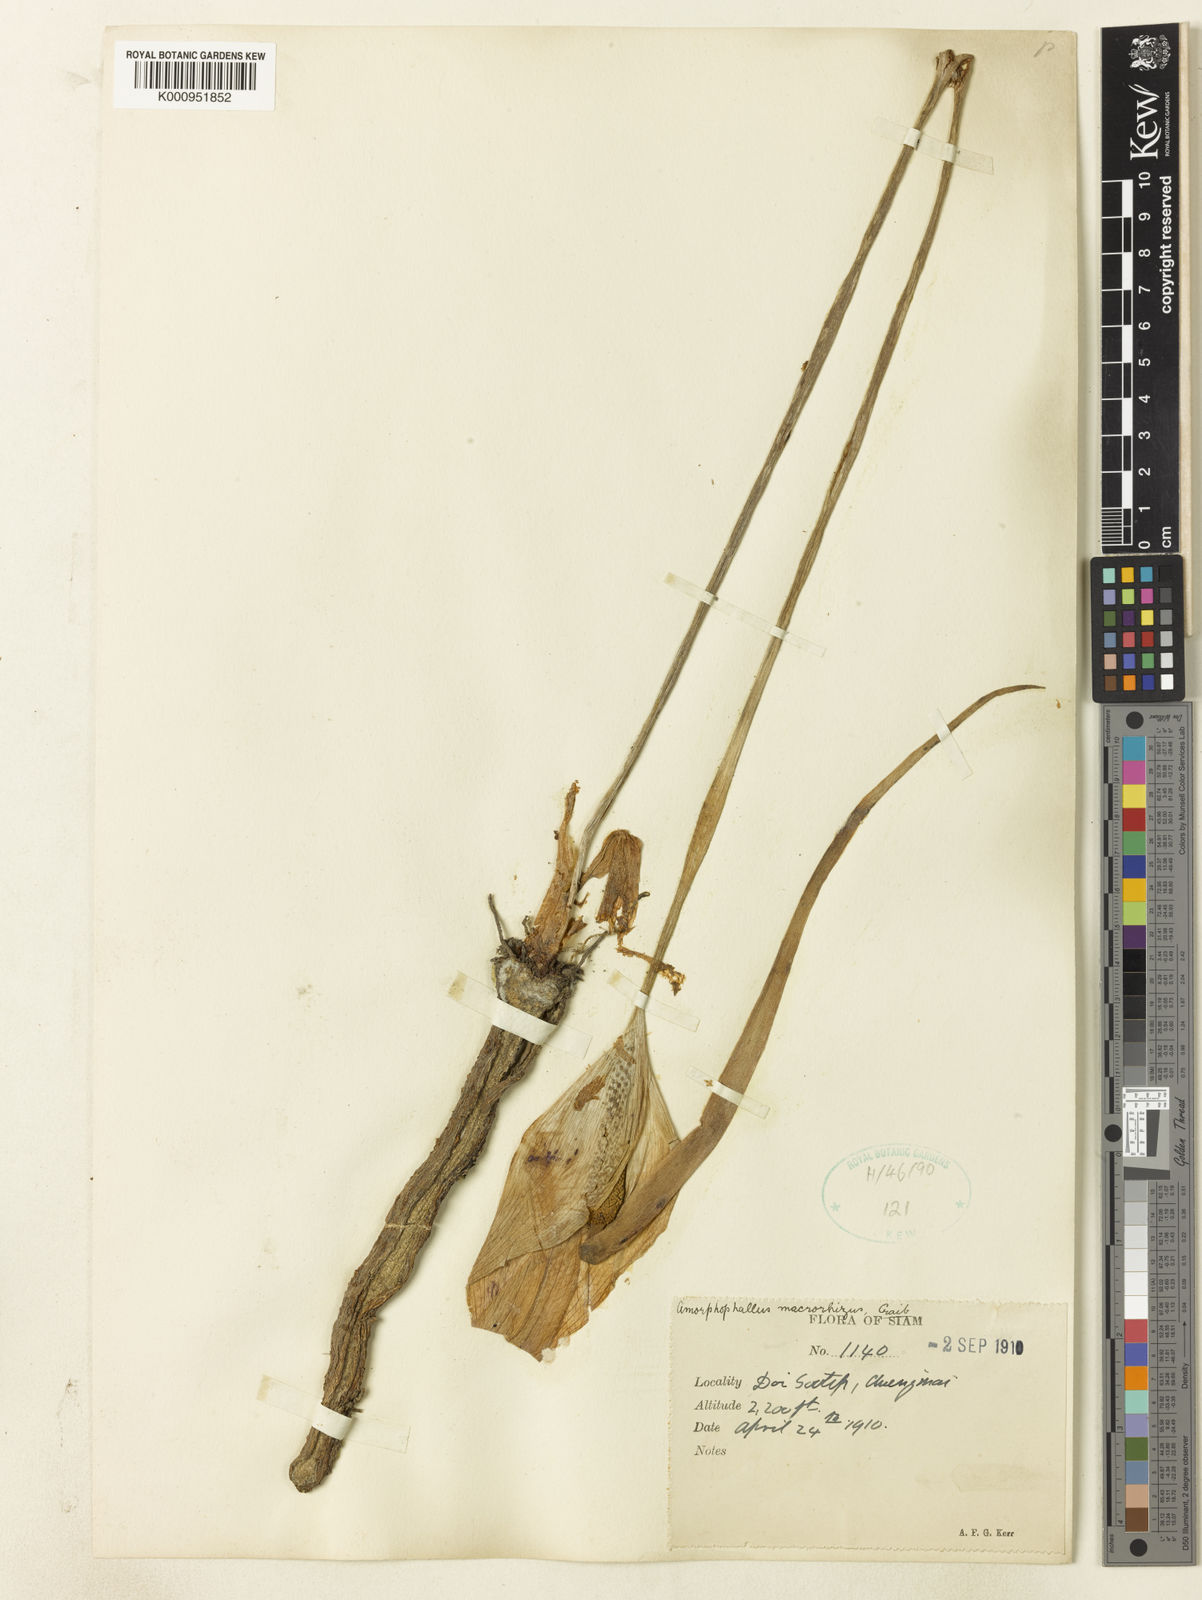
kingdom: Plantae
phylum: Tracheophyta
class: Liliopsida
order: Alismatales
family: Araceae
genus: Amorphophallus
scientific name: Amorphophallus macrorhizus
